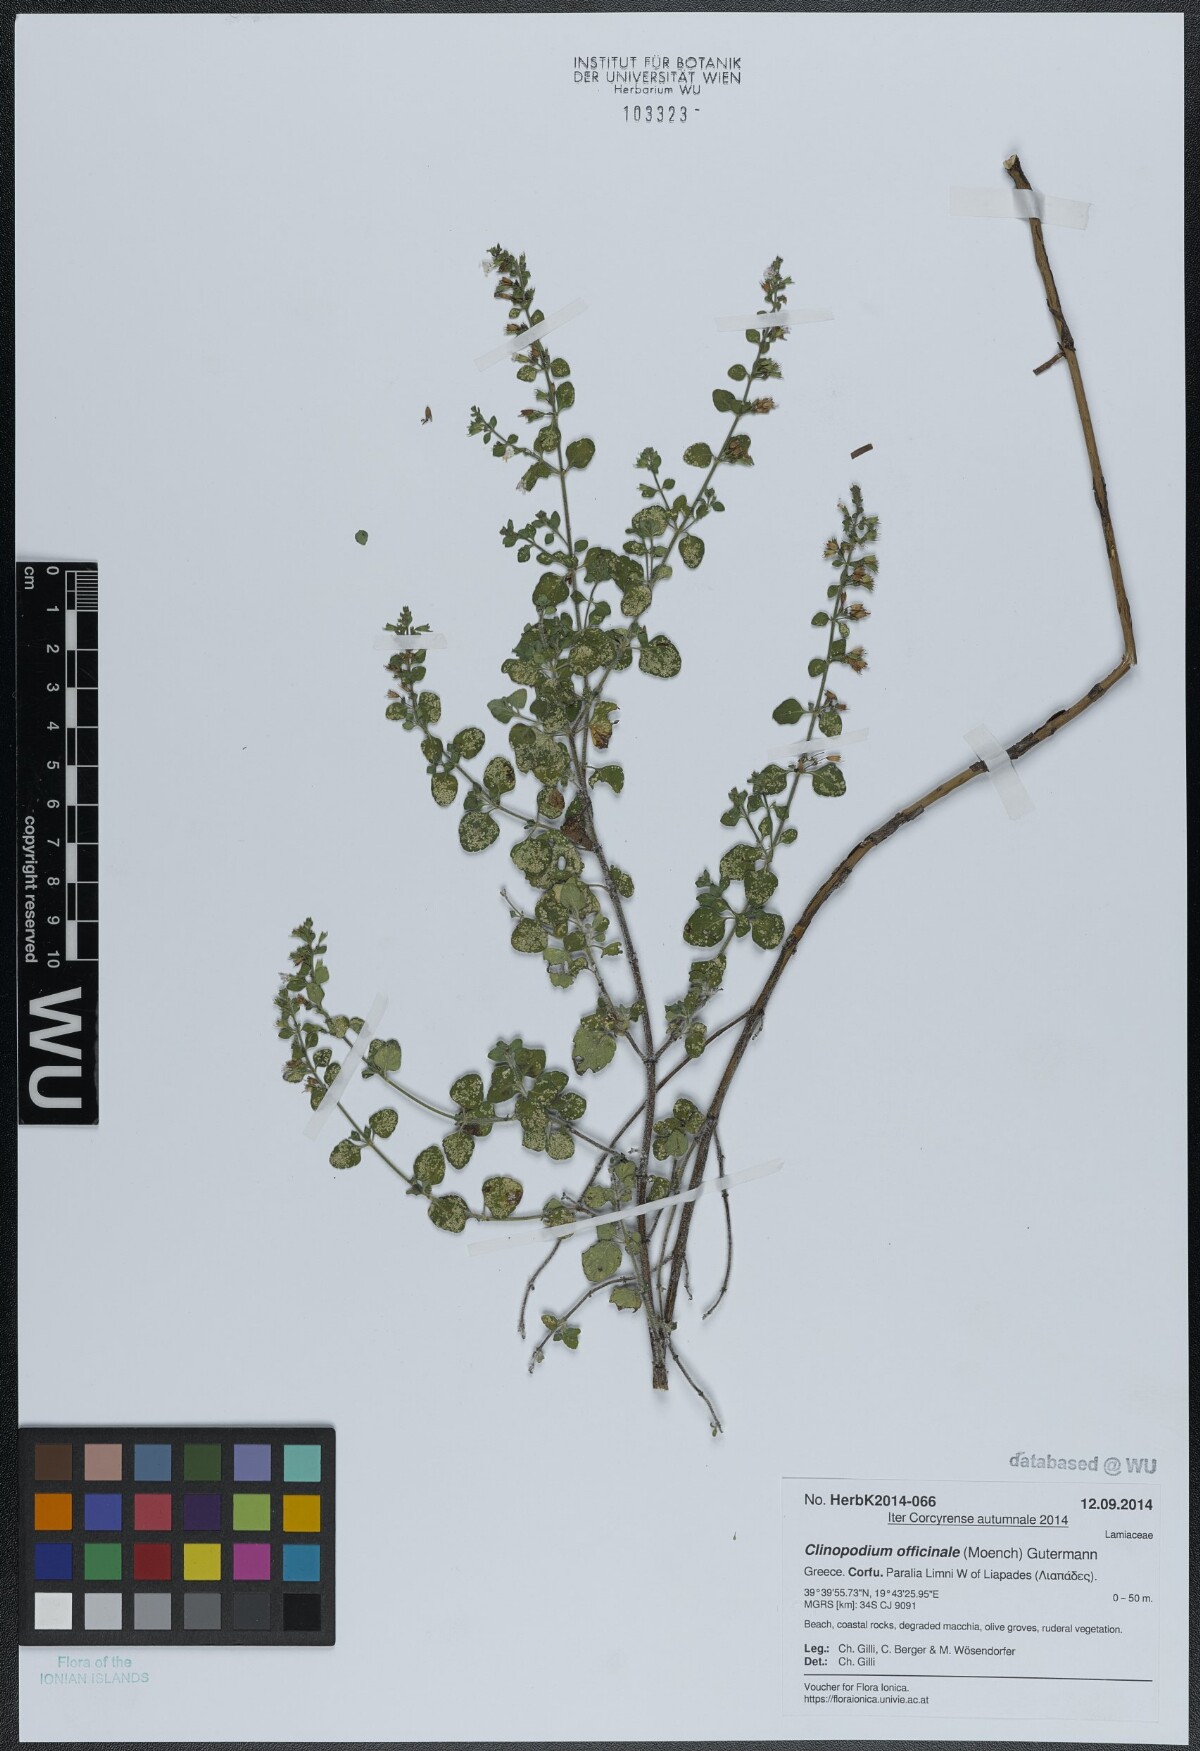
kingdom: Plantae
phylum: Tracheophyta
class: Magnoliopsida
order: Lamiales
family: Lamiaceae
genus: Clinopodium
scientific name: Clinopodium nepeta
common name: Lesser calamint
